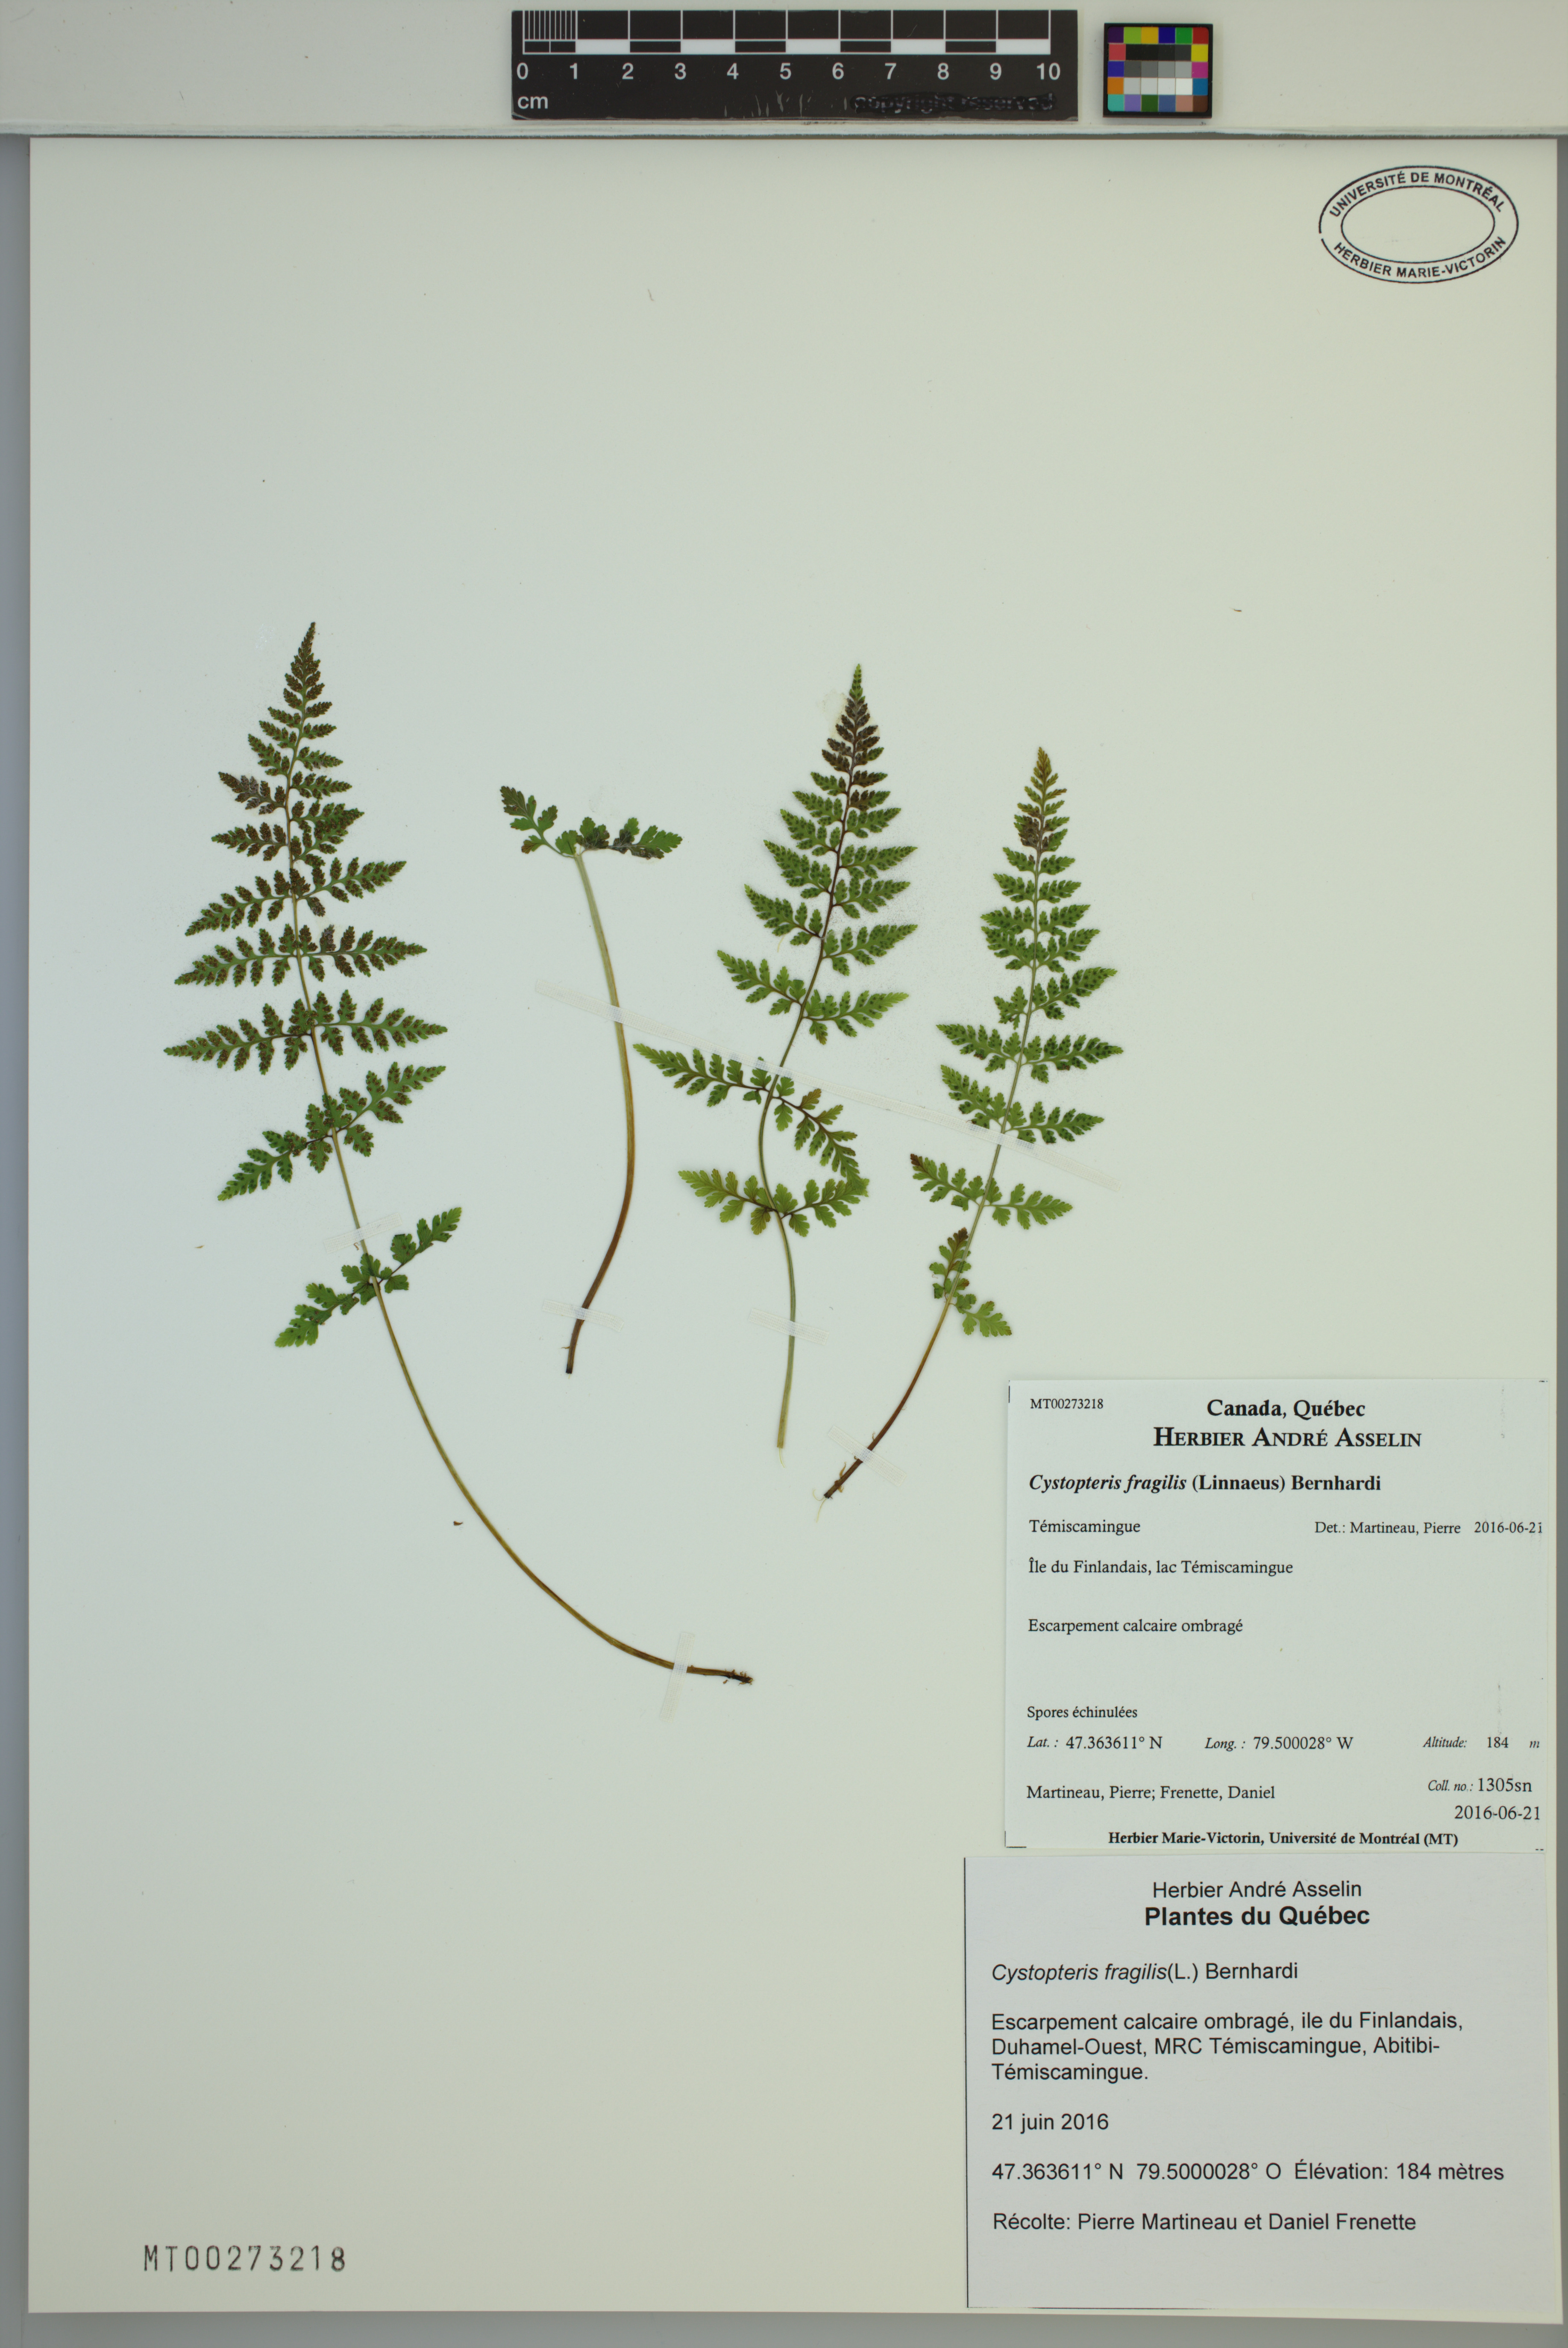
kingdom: Plantae
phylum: Tracheophyta
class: Polypodiopsida
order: Polypodiales
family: Cystopteridaceae
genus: Cystopteris
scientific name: Cystopteris fragilis
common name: Brittle bladder fern
